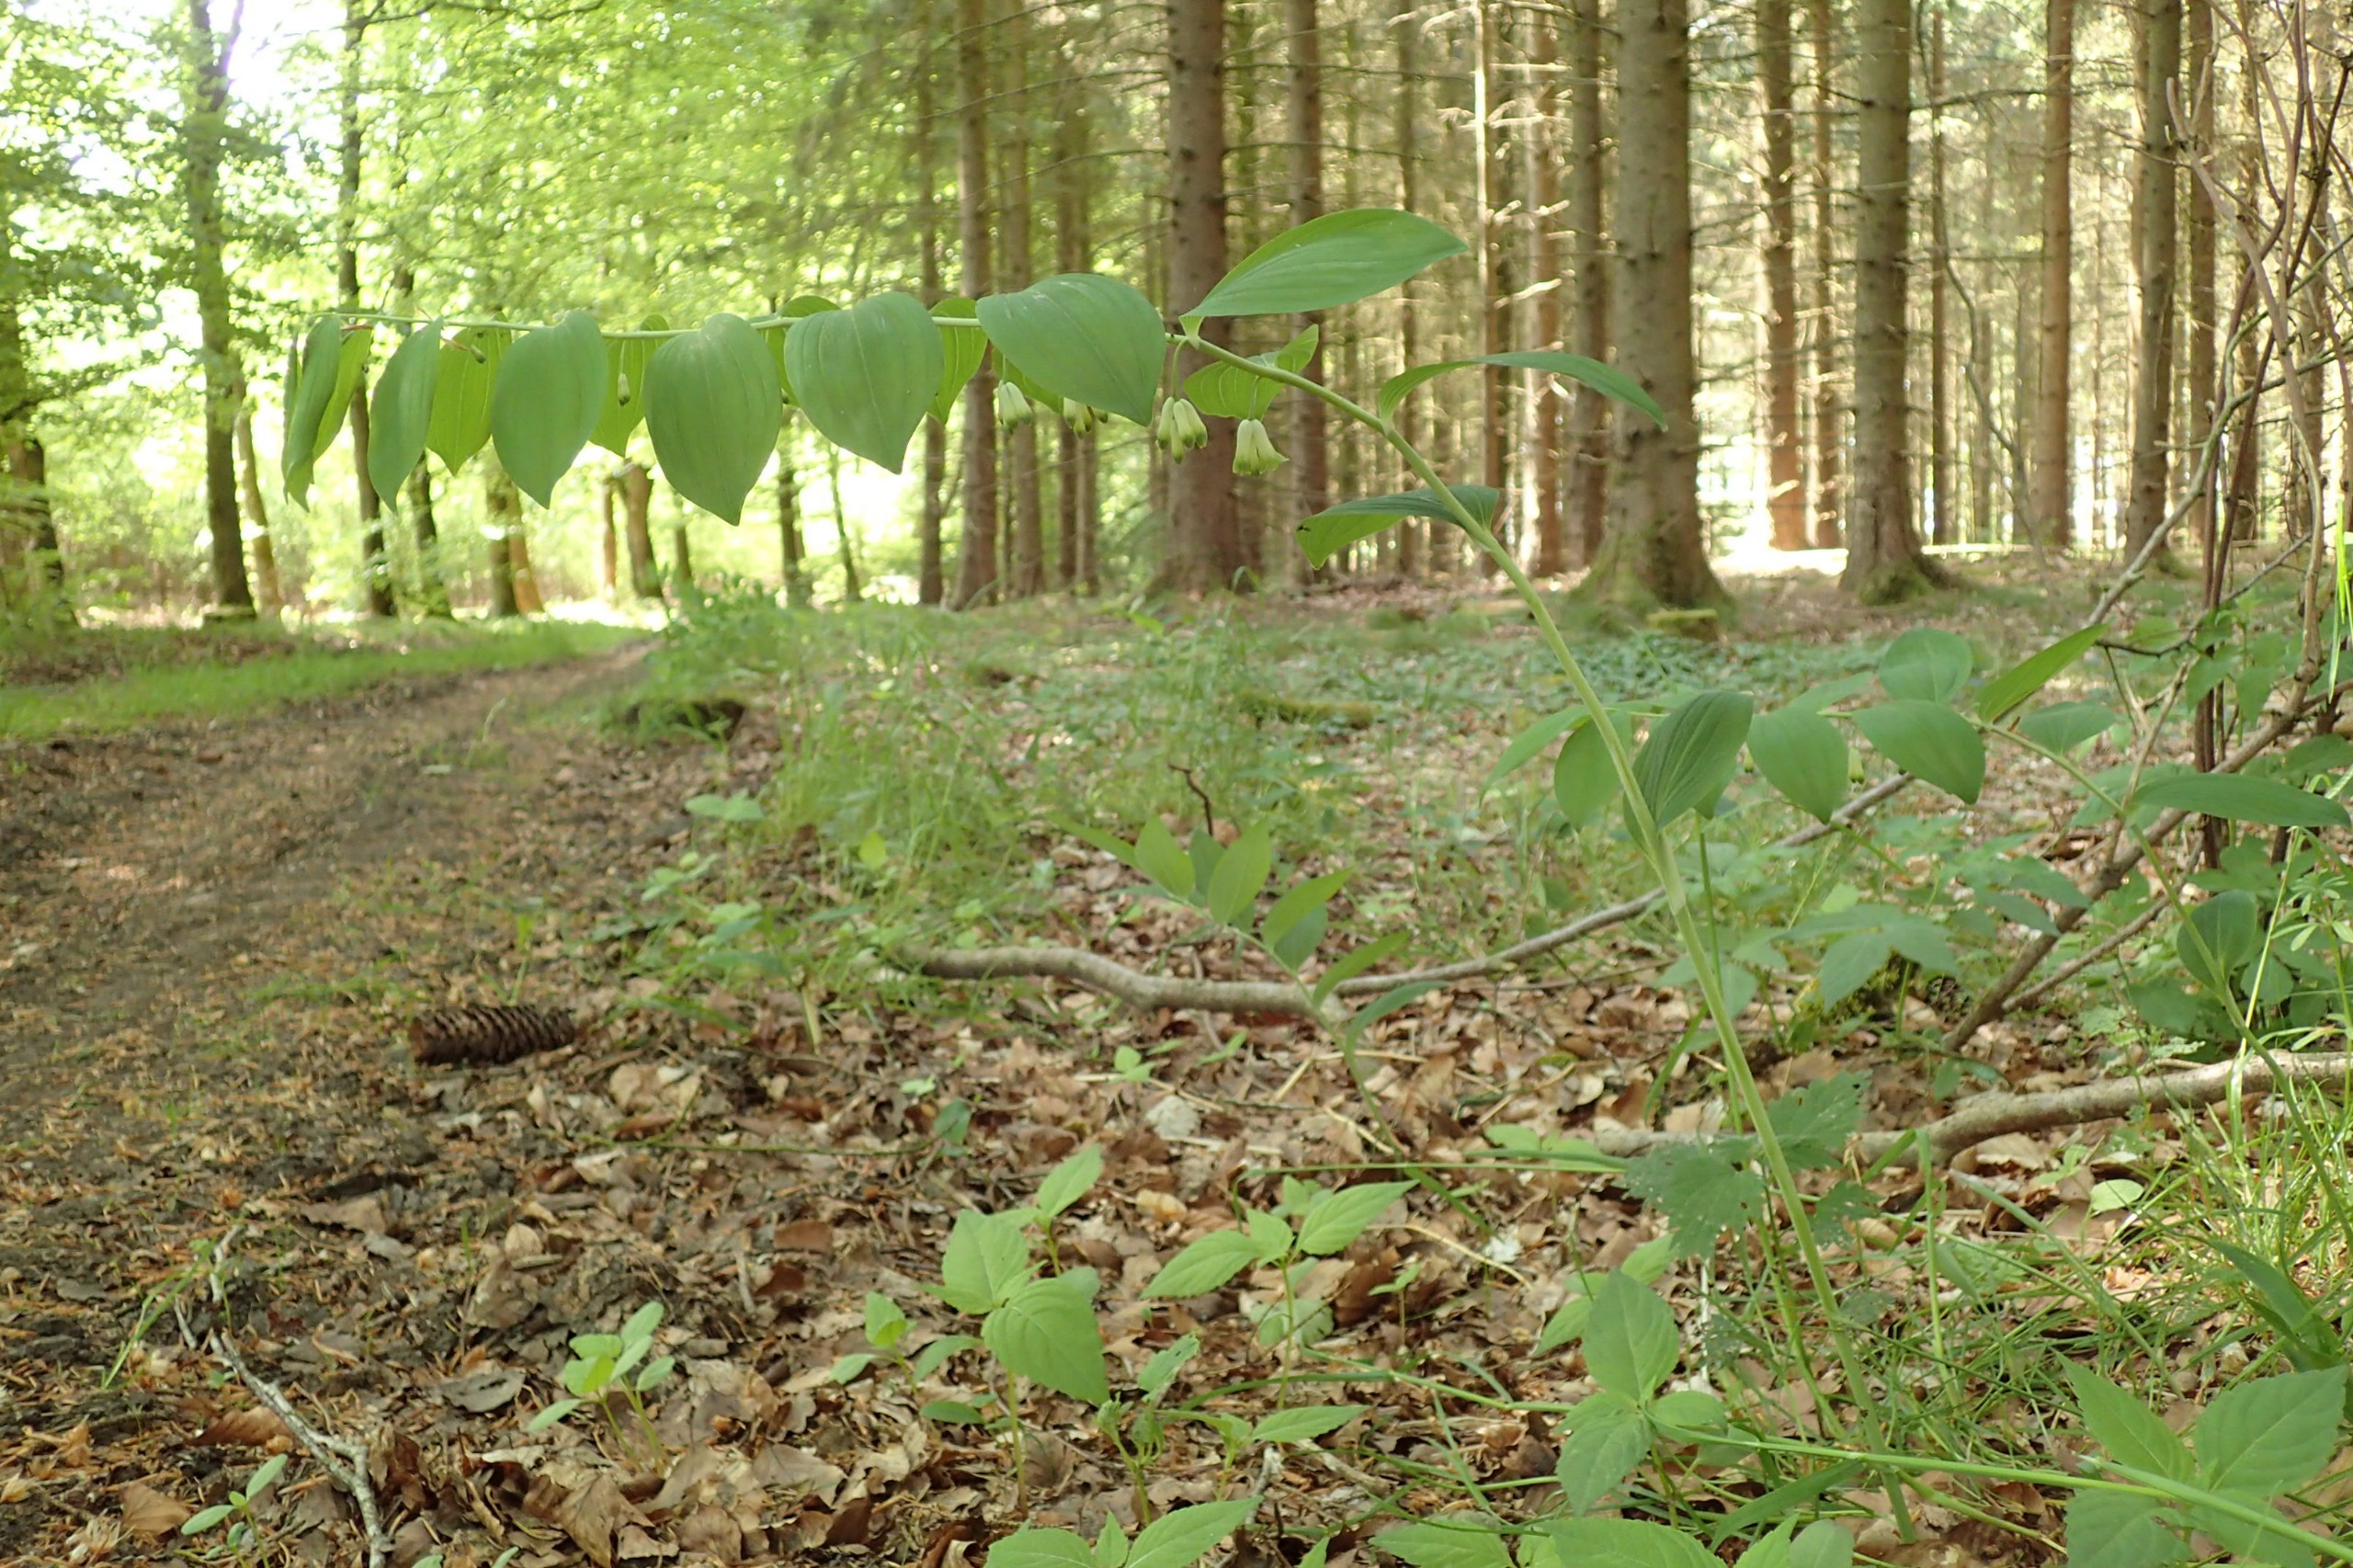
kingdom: Plantae
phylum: Tracheophyta
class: Liliopsida
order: Asparagales
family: Asparagaceae
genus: Polygonatum
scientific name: Polygonatum multiflorum
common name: Stor konval
